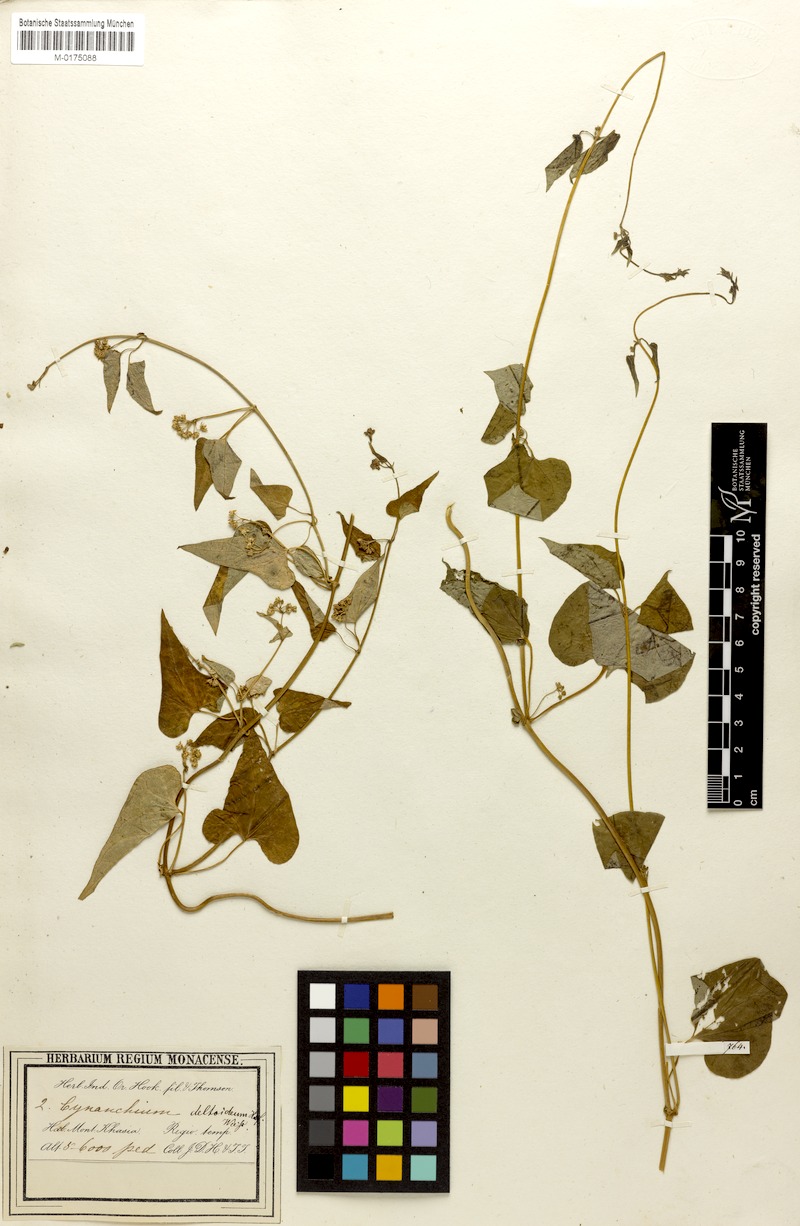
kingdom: Plantae
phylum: Tracheophyta
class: Magnoliopsida
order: Gentianales
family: Apocynaceae
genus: Vincetoxicum
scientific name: Vincetoxicum deltoideum
